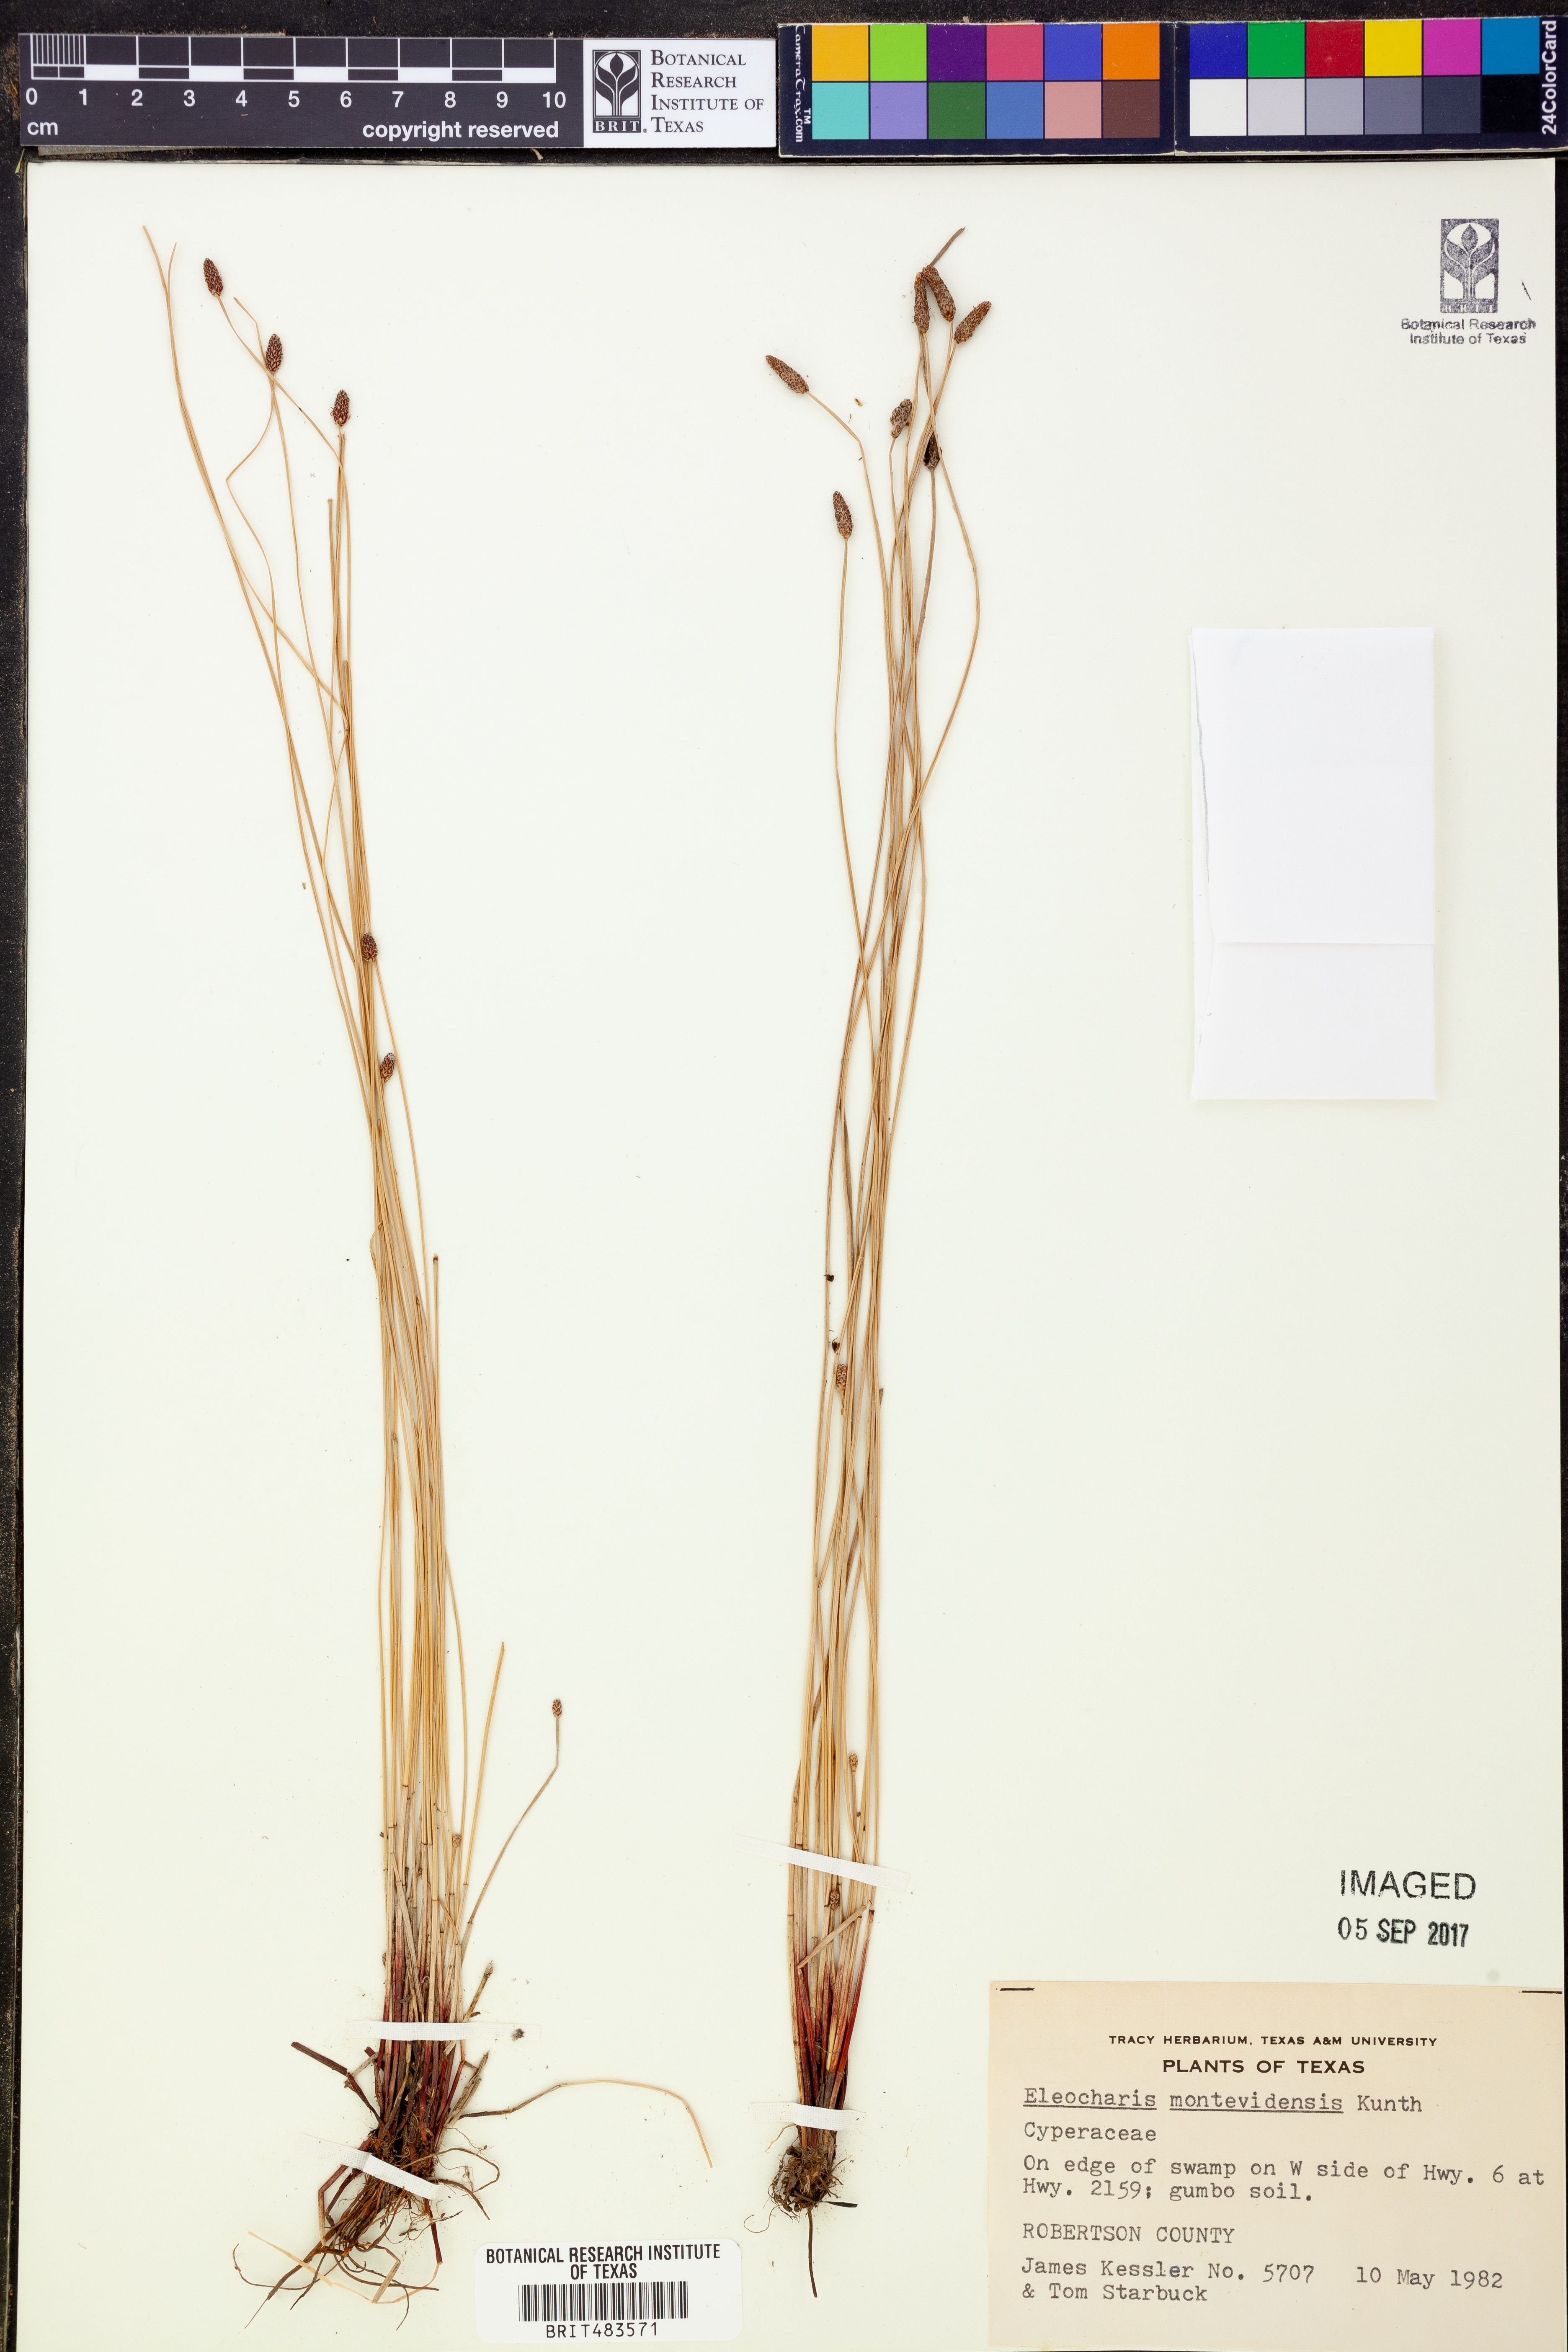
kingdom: Plantae
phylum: Tracheophyta
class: Liliopsida
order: Poales
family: Cyperaceae
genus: Eleocharis
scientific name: Eleocharis montevidensis
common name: Sand spike-rush
